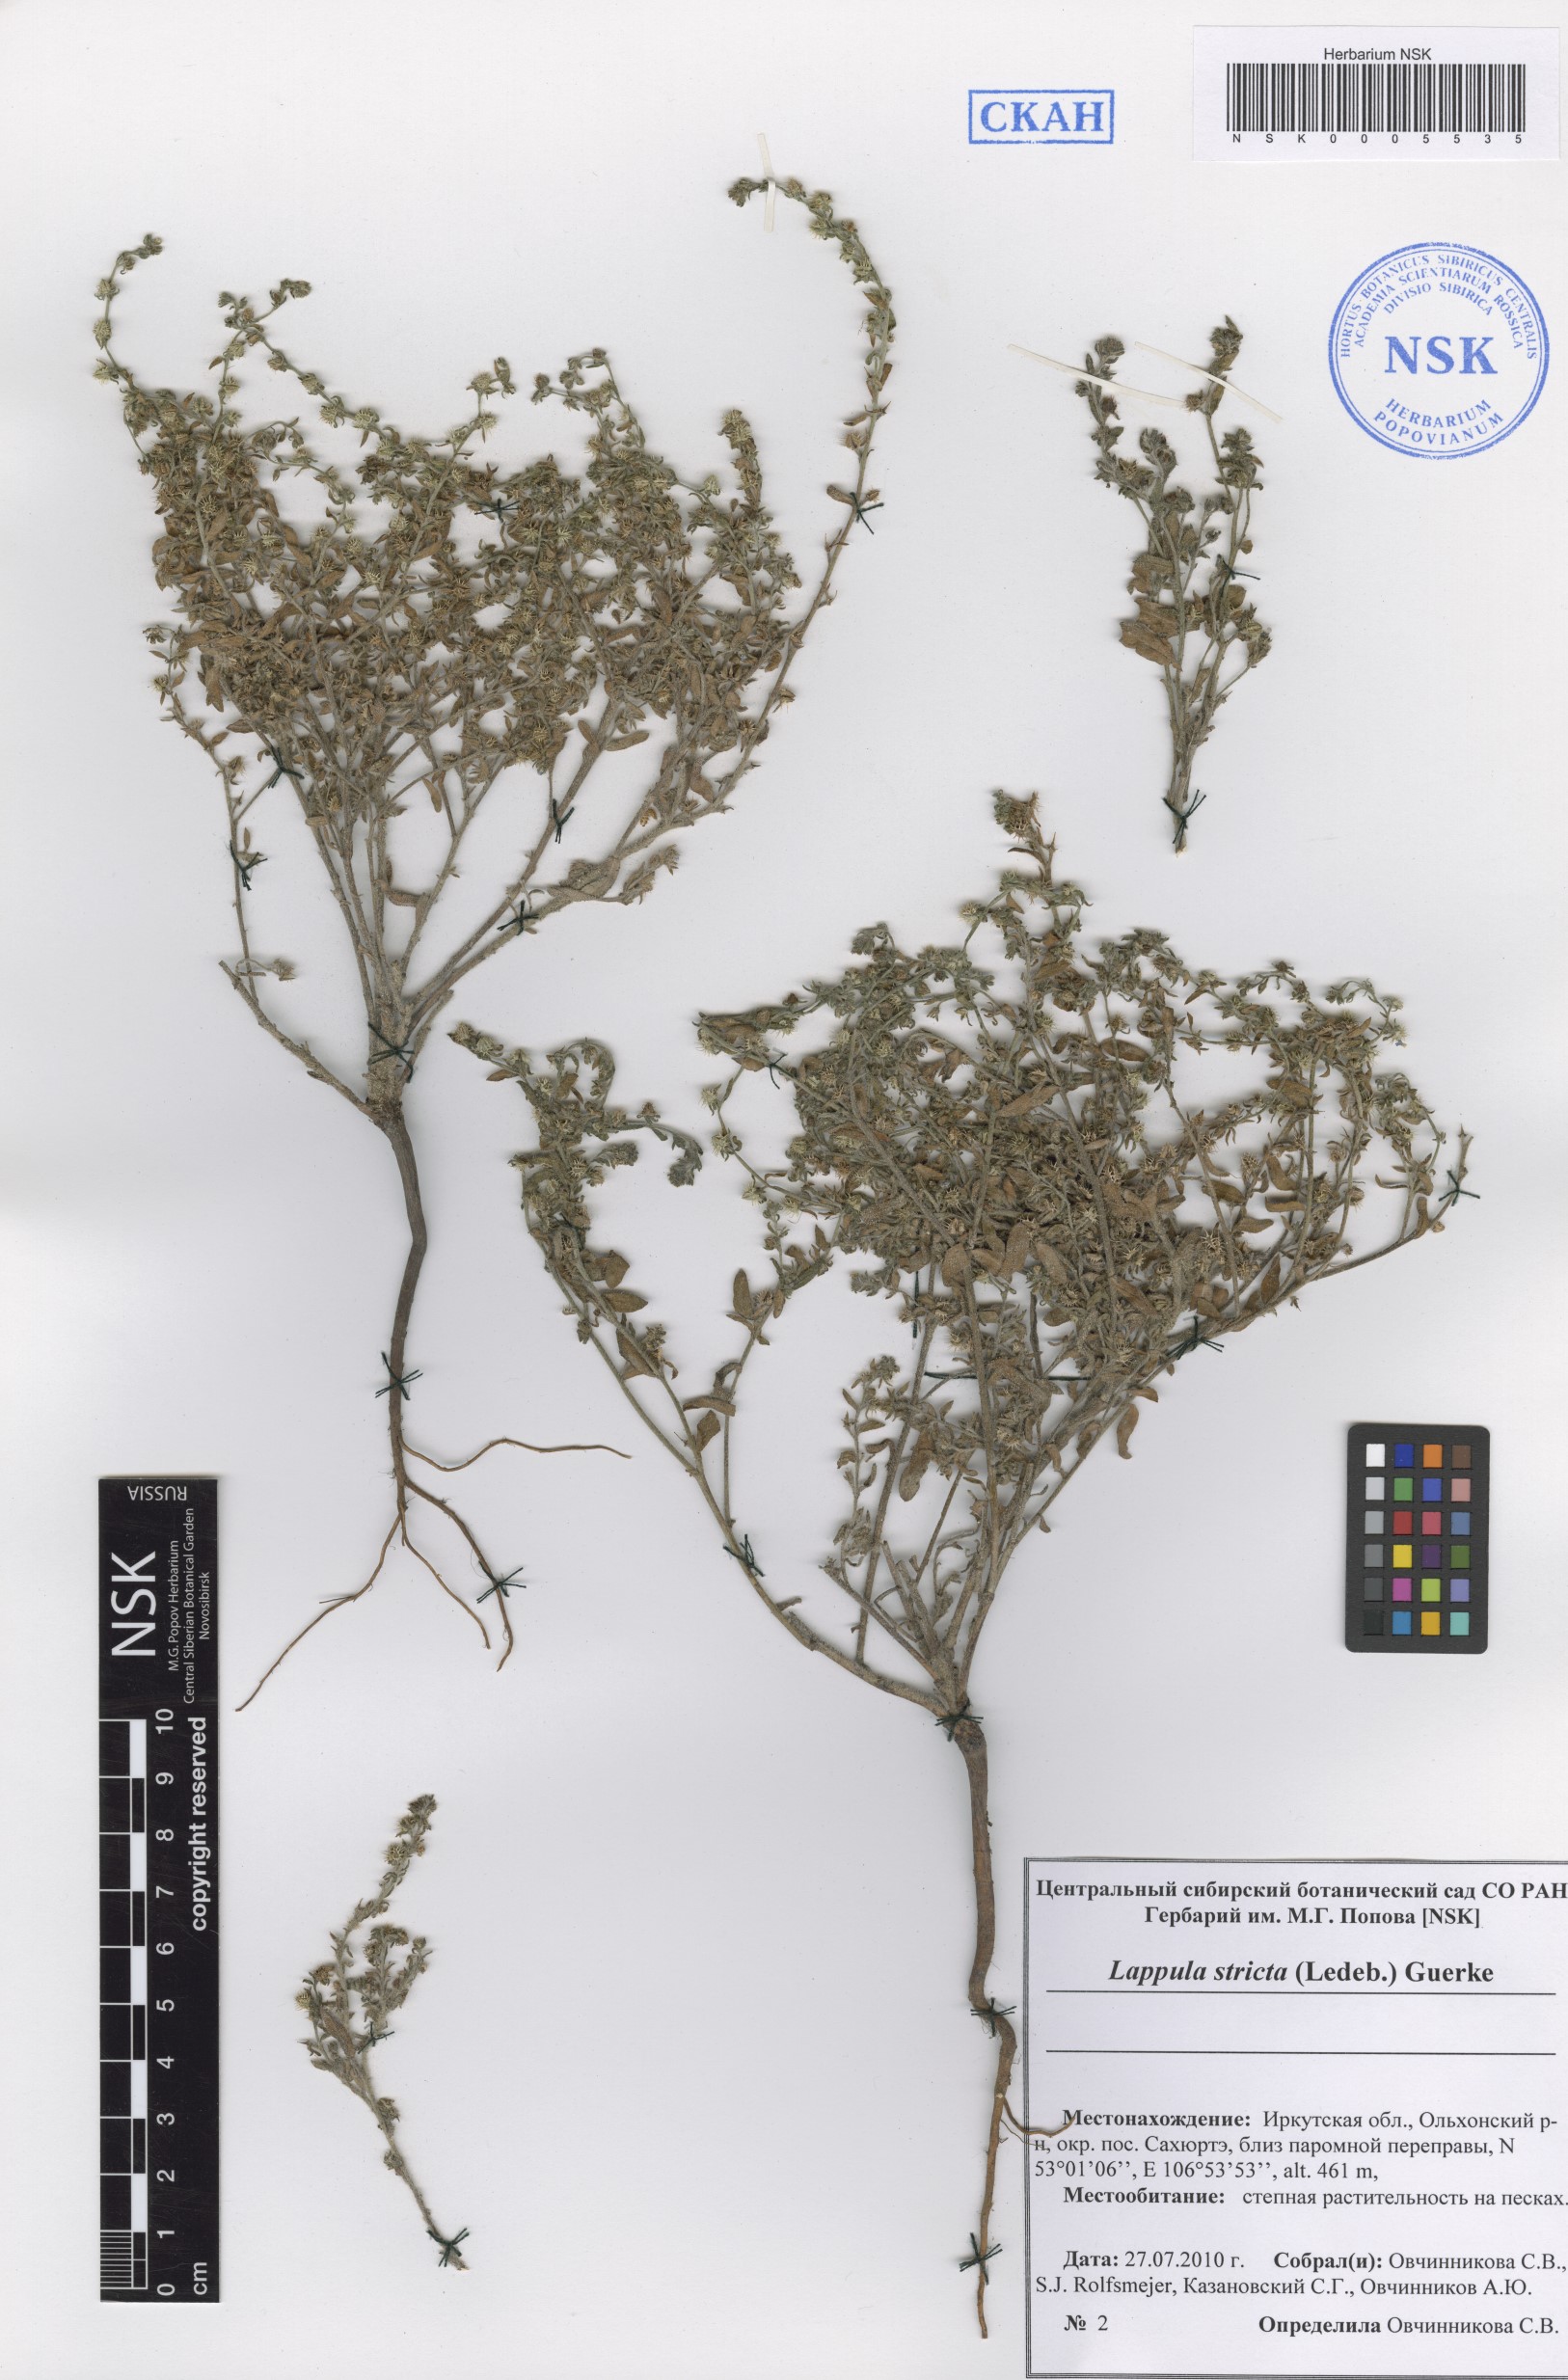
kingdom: Plantae
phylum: Tracheophyta
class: Magnoliopsida
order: Boraginales
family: Boraginaceae
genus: Lappula
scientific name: Lappula stricta
